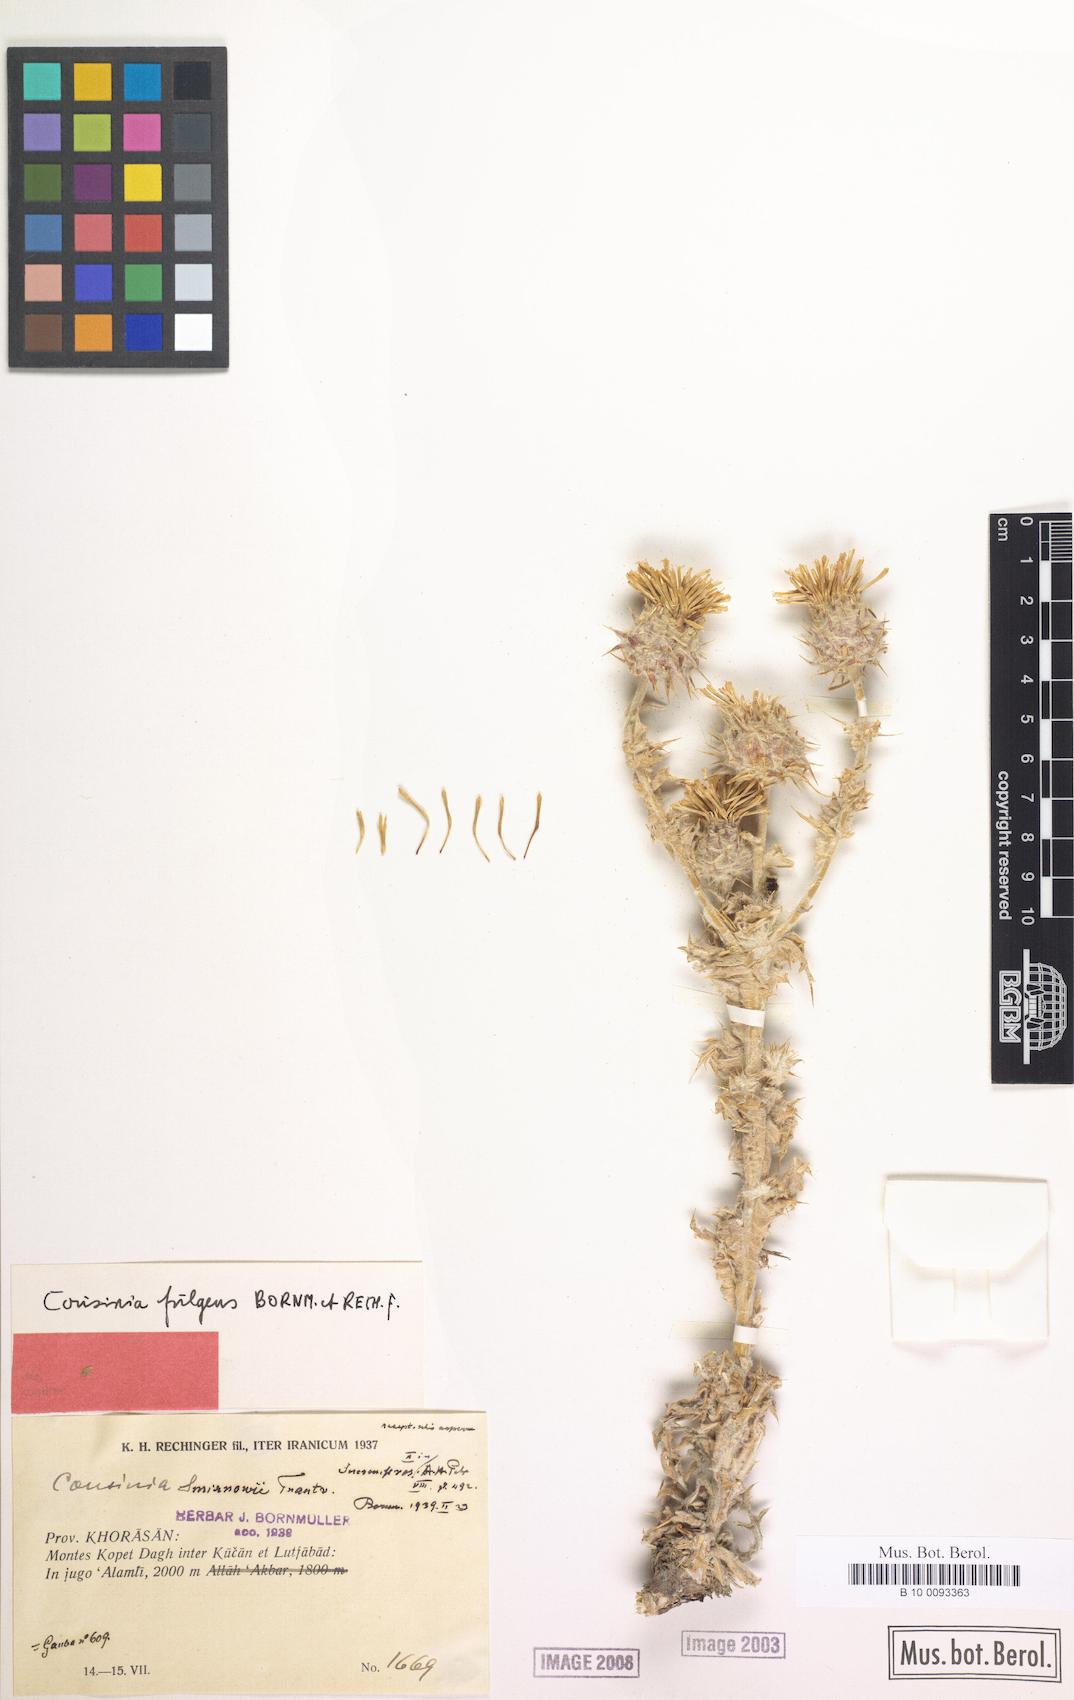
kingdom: Plantae
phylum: Tracheophyta
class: Magnoliopsida
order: Asterales
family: Asteraceae
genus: Cousinia
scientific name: Cousinia smirnowii
